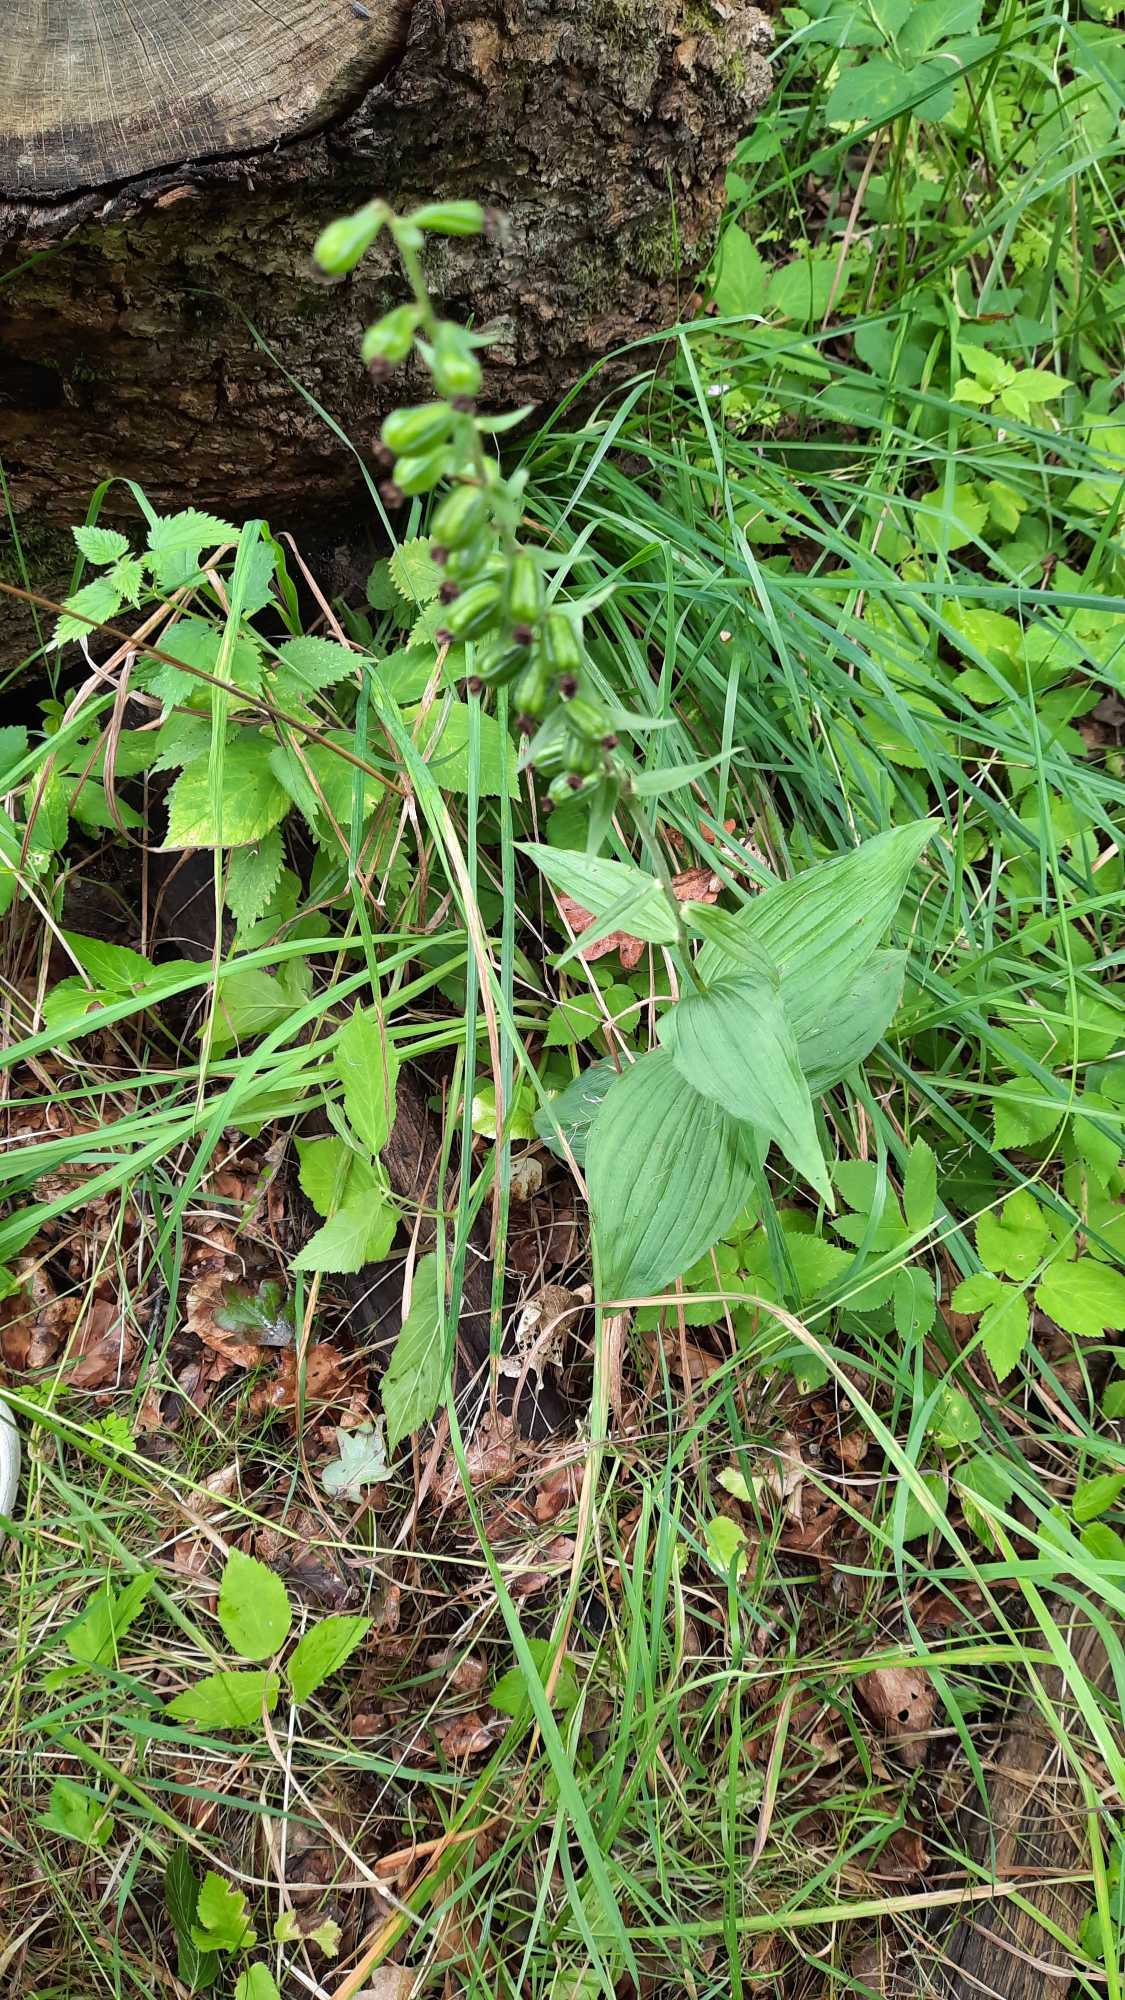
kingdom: Plantae
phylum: Tracheophyta
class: Liliopsida
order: Asparagales
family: Orchidaceae
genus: Epipactis
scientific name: Epipactis helleborine
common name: Skov-hullæbe
